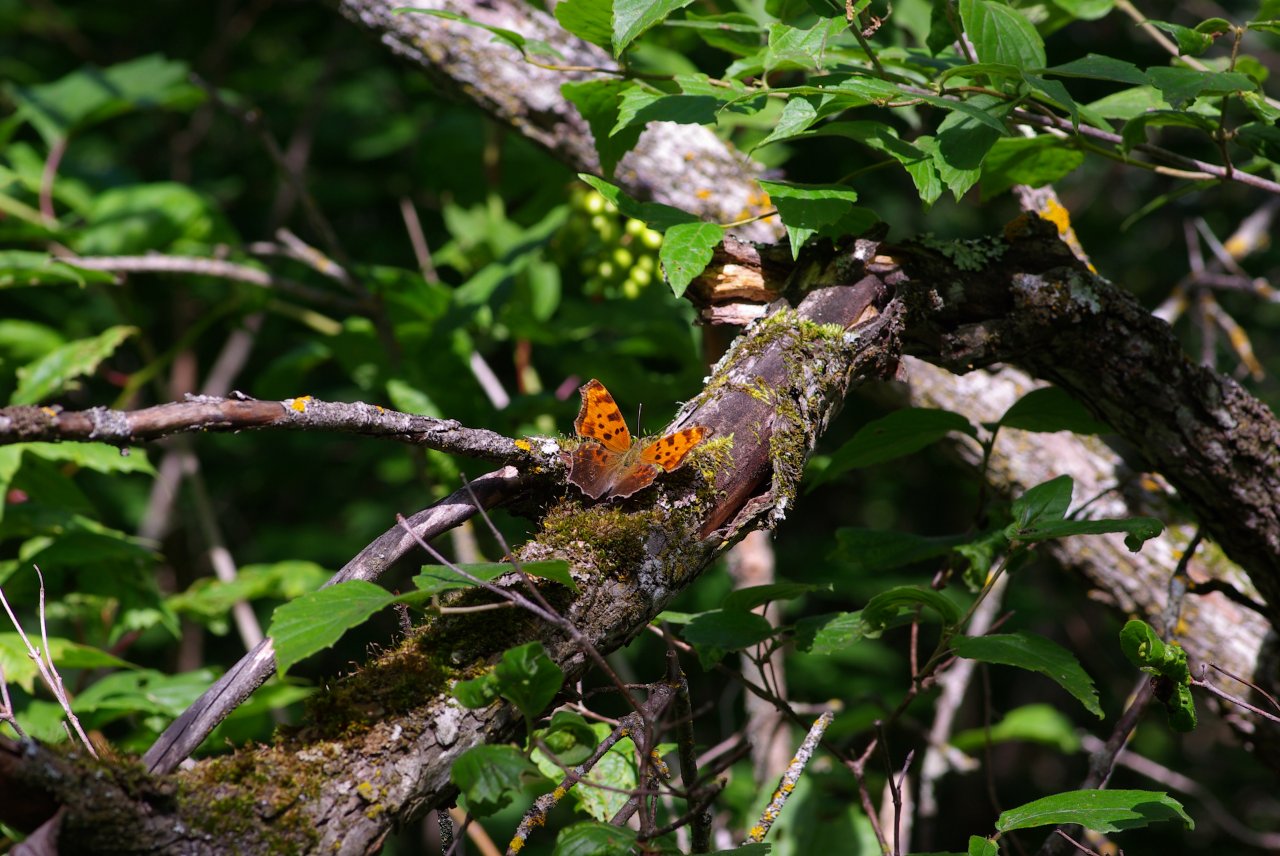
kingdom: Animalia
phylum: Arthropoda
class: Insecta
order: Lepidoptera
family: Nymphalidae
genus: Polygonia
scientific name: Polygonia comma
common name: Eastern Comma
